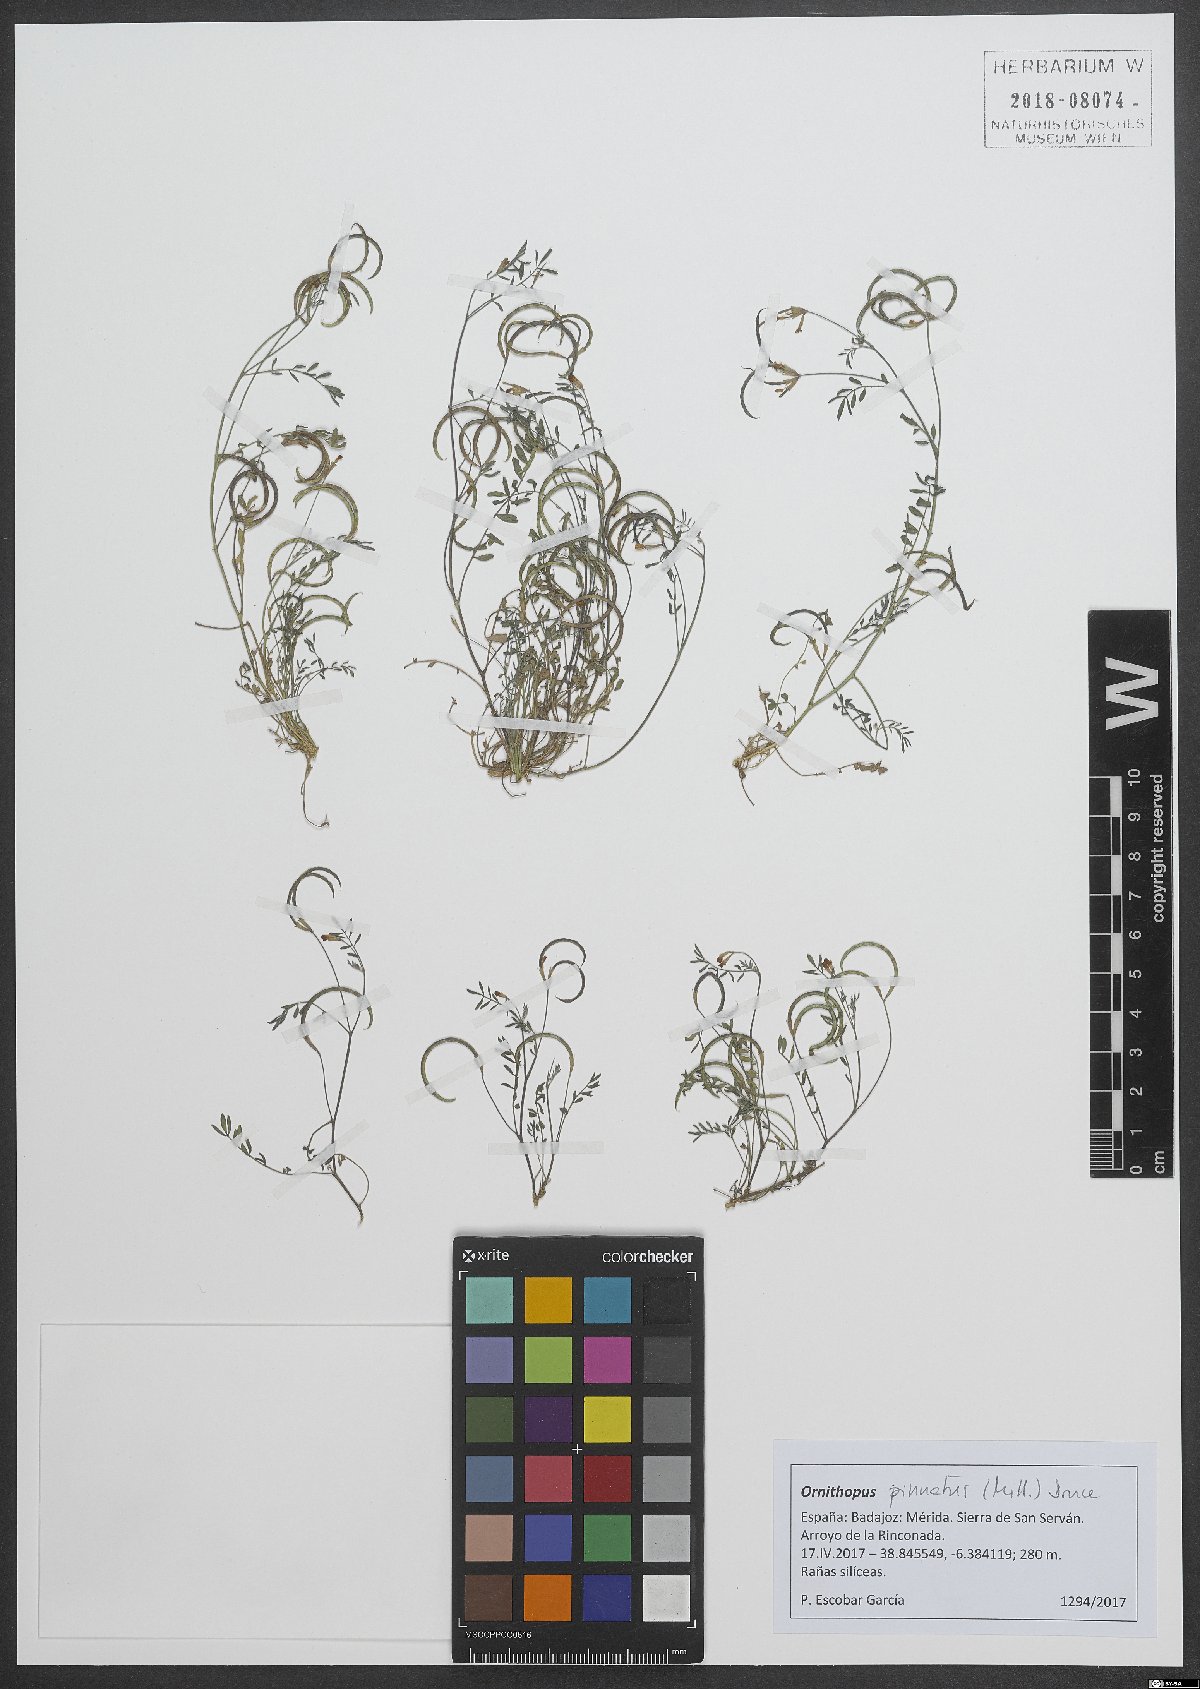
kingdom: Plantae
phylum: Tracheophyta
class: Magnoliopsida
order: Fabales
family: Fabaceae
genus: Ornithopus
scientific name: Ornithopus pinnatus
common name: Orange bird's-foot
